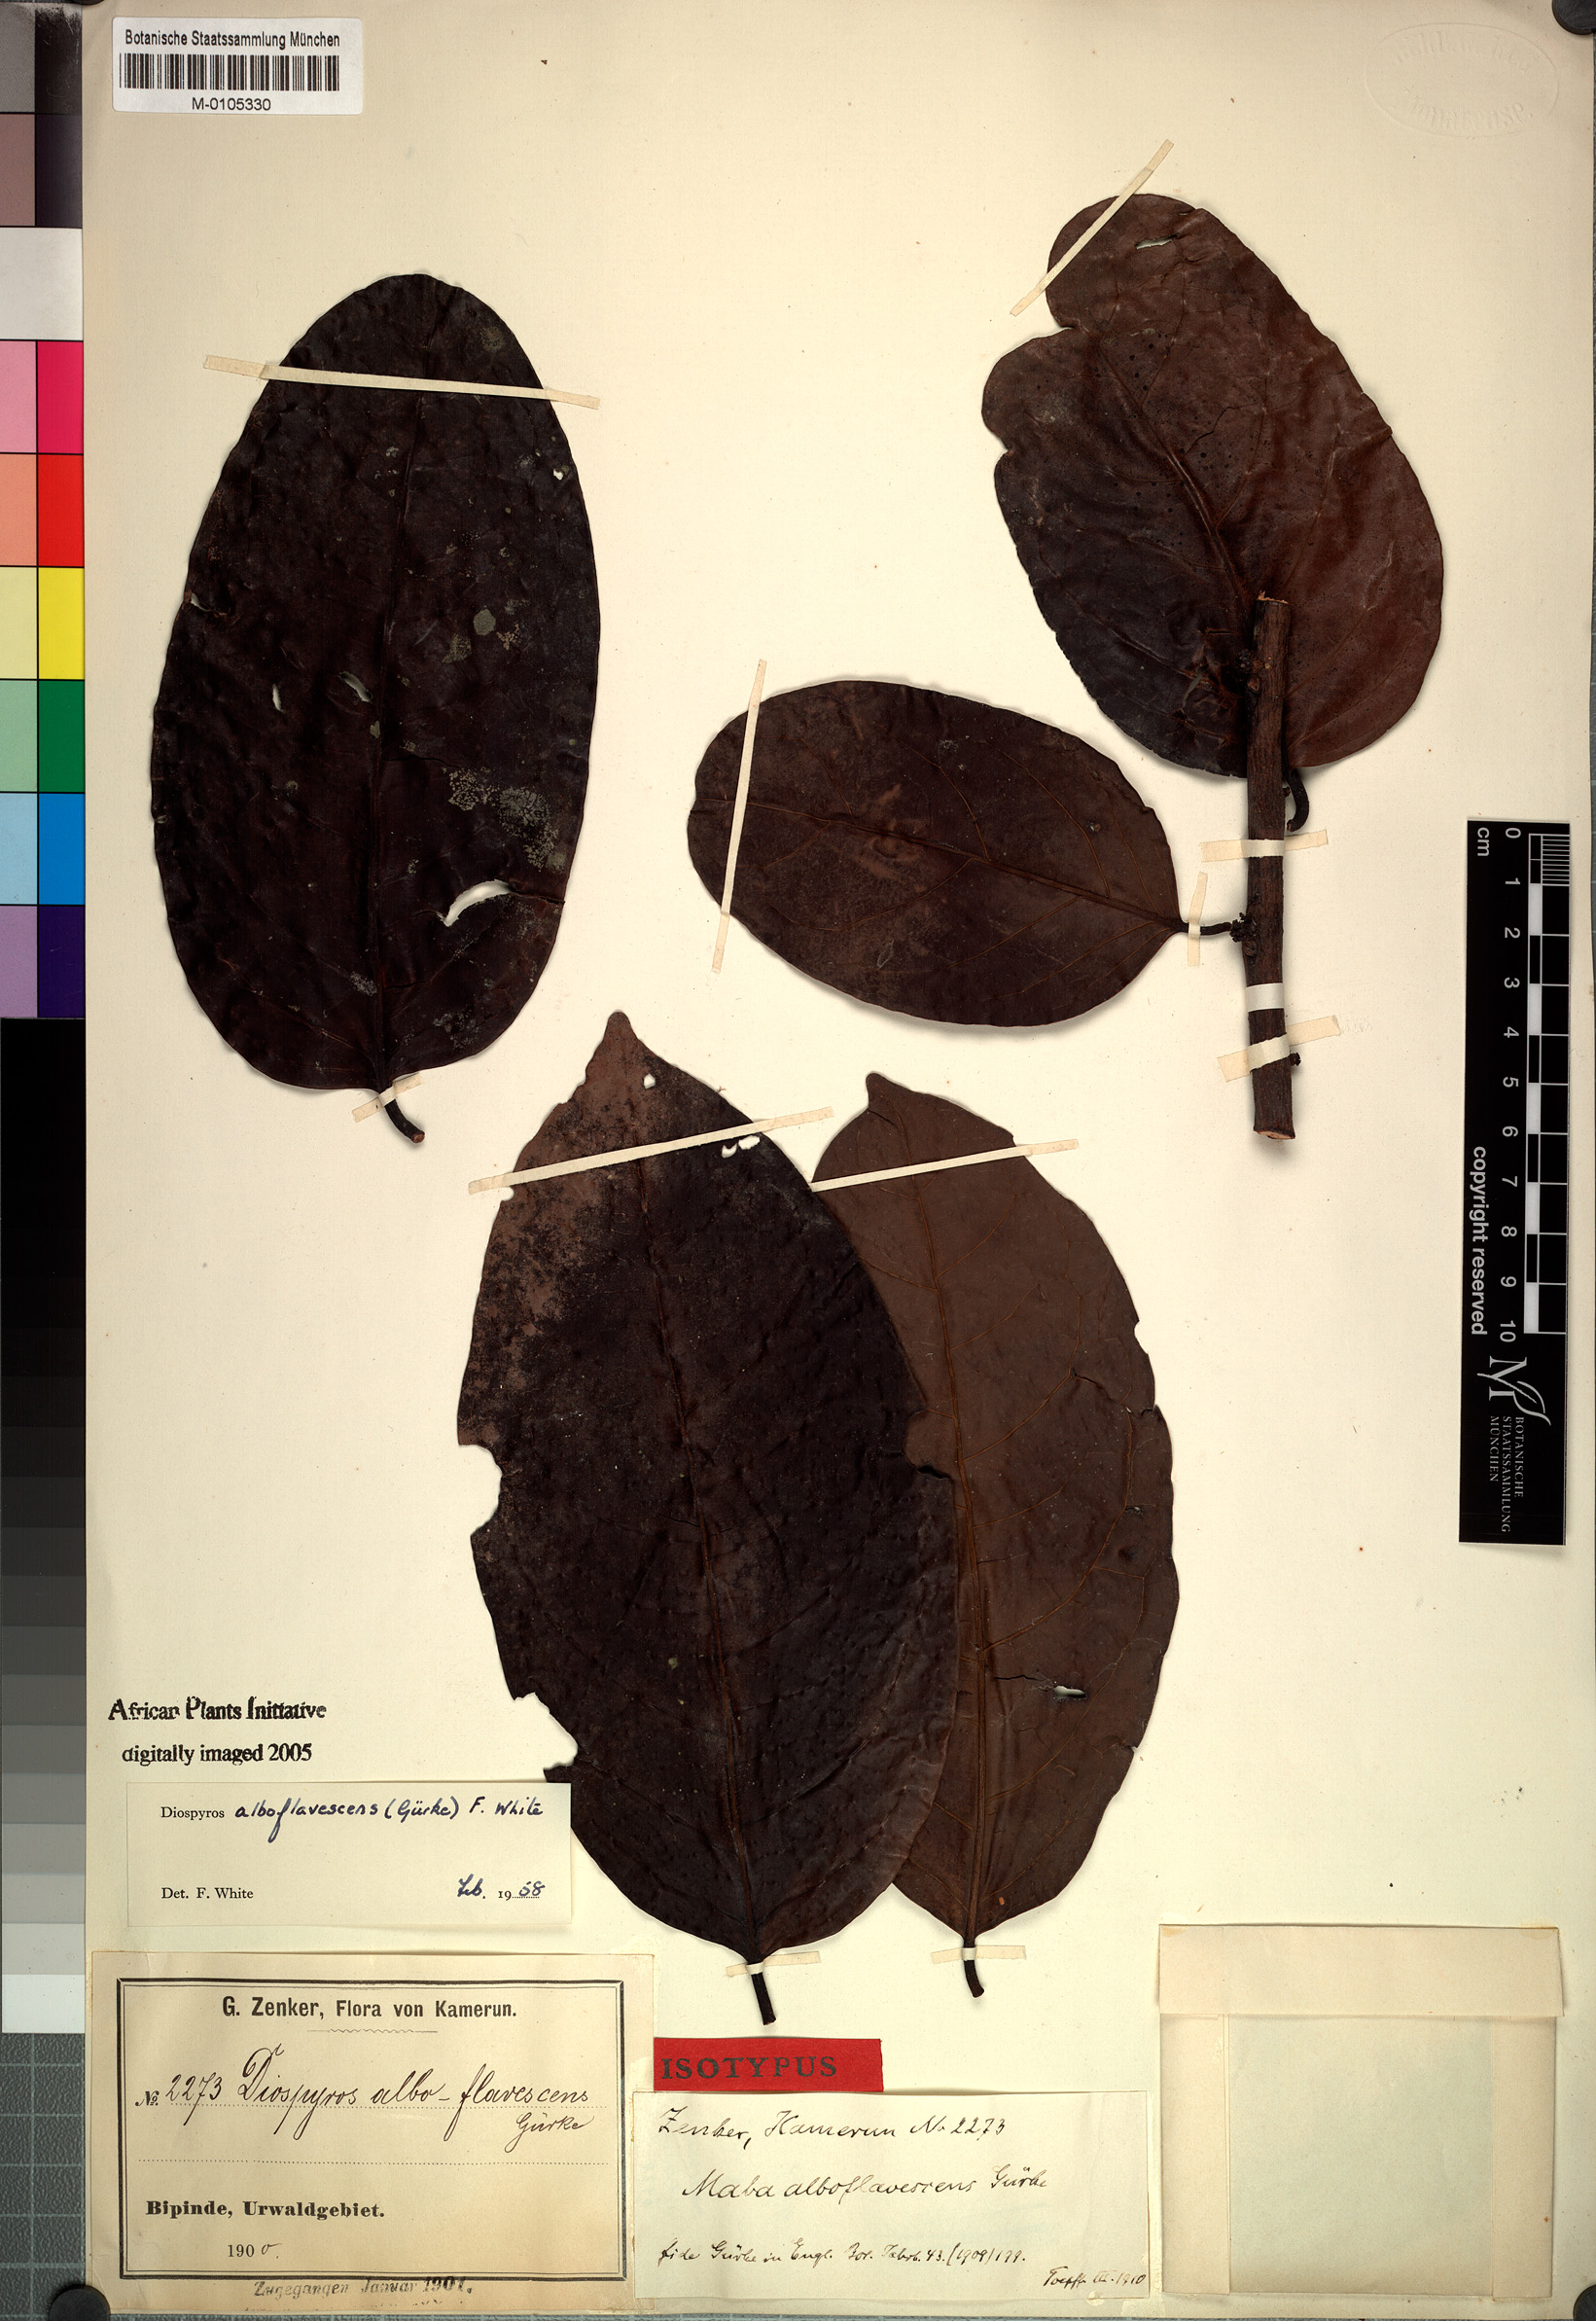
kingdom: Plantae
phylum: Tracheophyta
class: Magnoliopsida
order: Ericales
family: Ebenaceae
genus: Diospyros
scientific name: Diospyros alboflavescens
